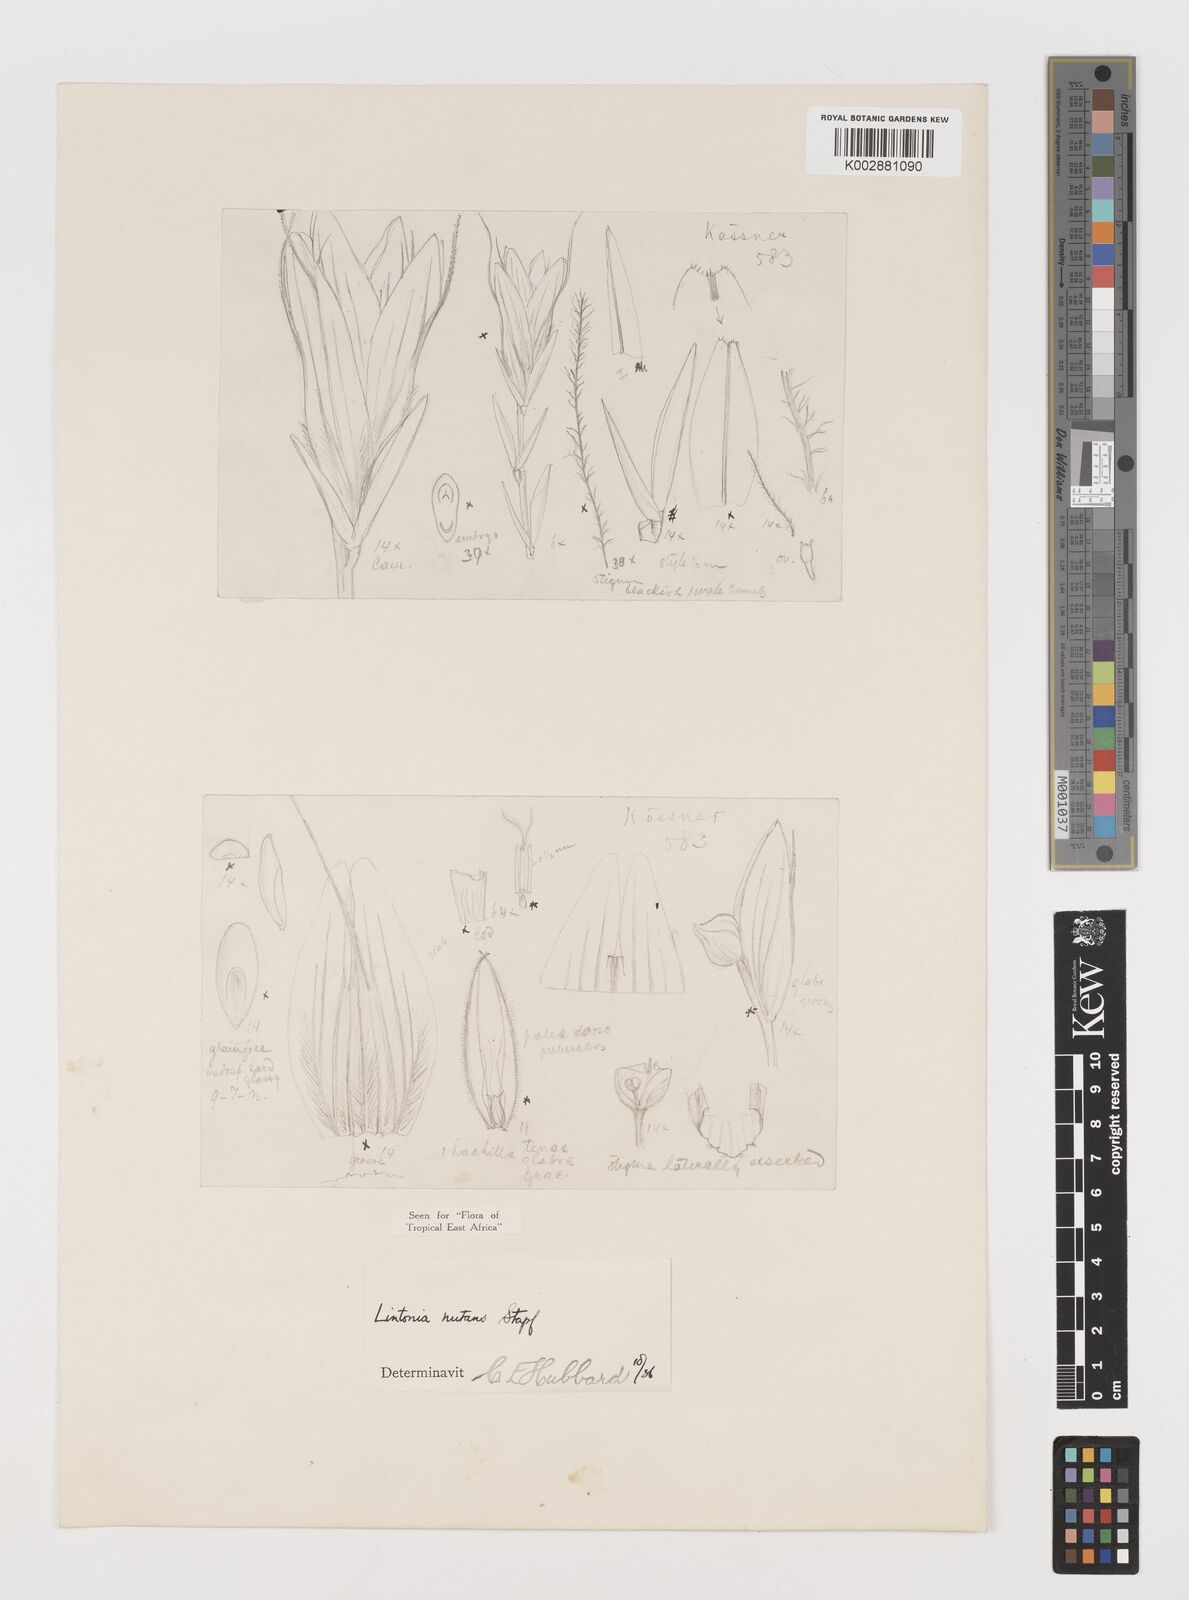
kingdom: Plantae
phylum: Tracheophyta
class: Liliopsida
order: Poales
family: Poaceae
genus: Chloris
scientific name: Chloris nutans
